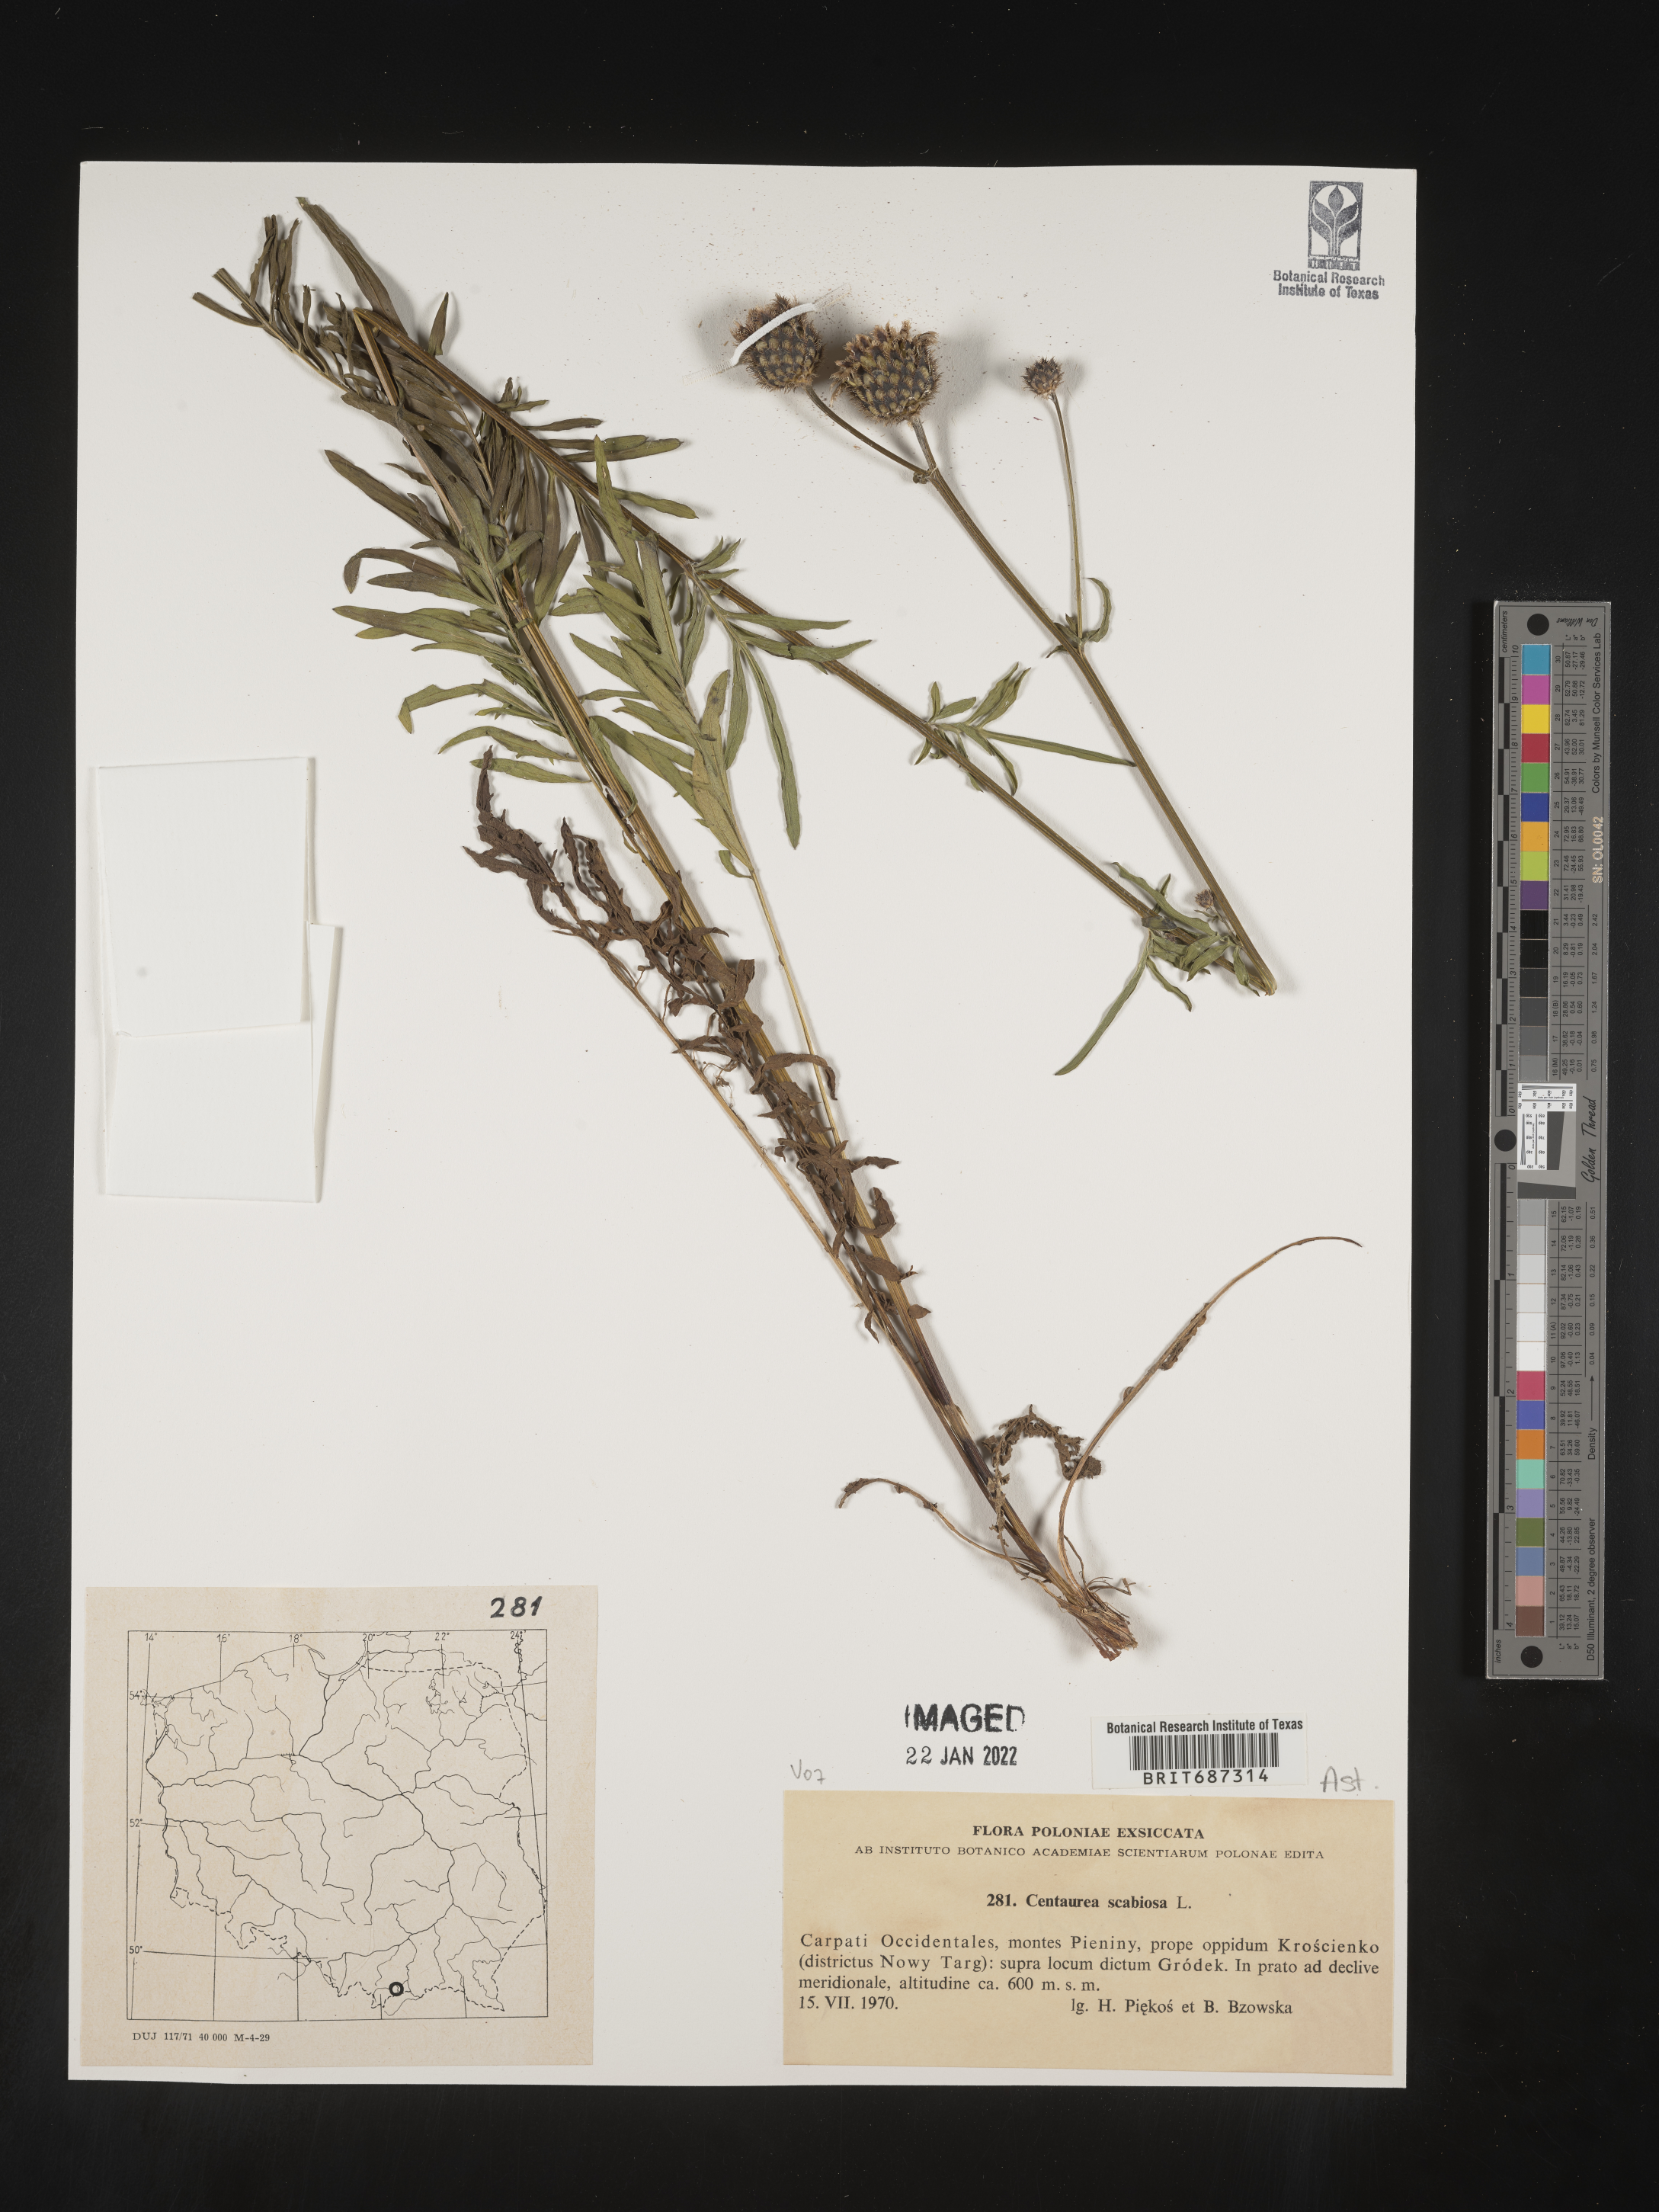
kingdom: Plantae
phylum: Tracheophyta
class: Magnoliopsida
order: Asterales
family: Asteraceae
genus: Centaurea
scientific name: Centaurea
